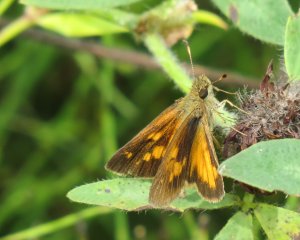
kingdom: Animalia
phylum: Arthropoda
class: Insecta
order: Lepidoptera
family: Hesperiidae
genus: Poanes
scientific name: Poanes viator
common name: Broad-winged Skipper
